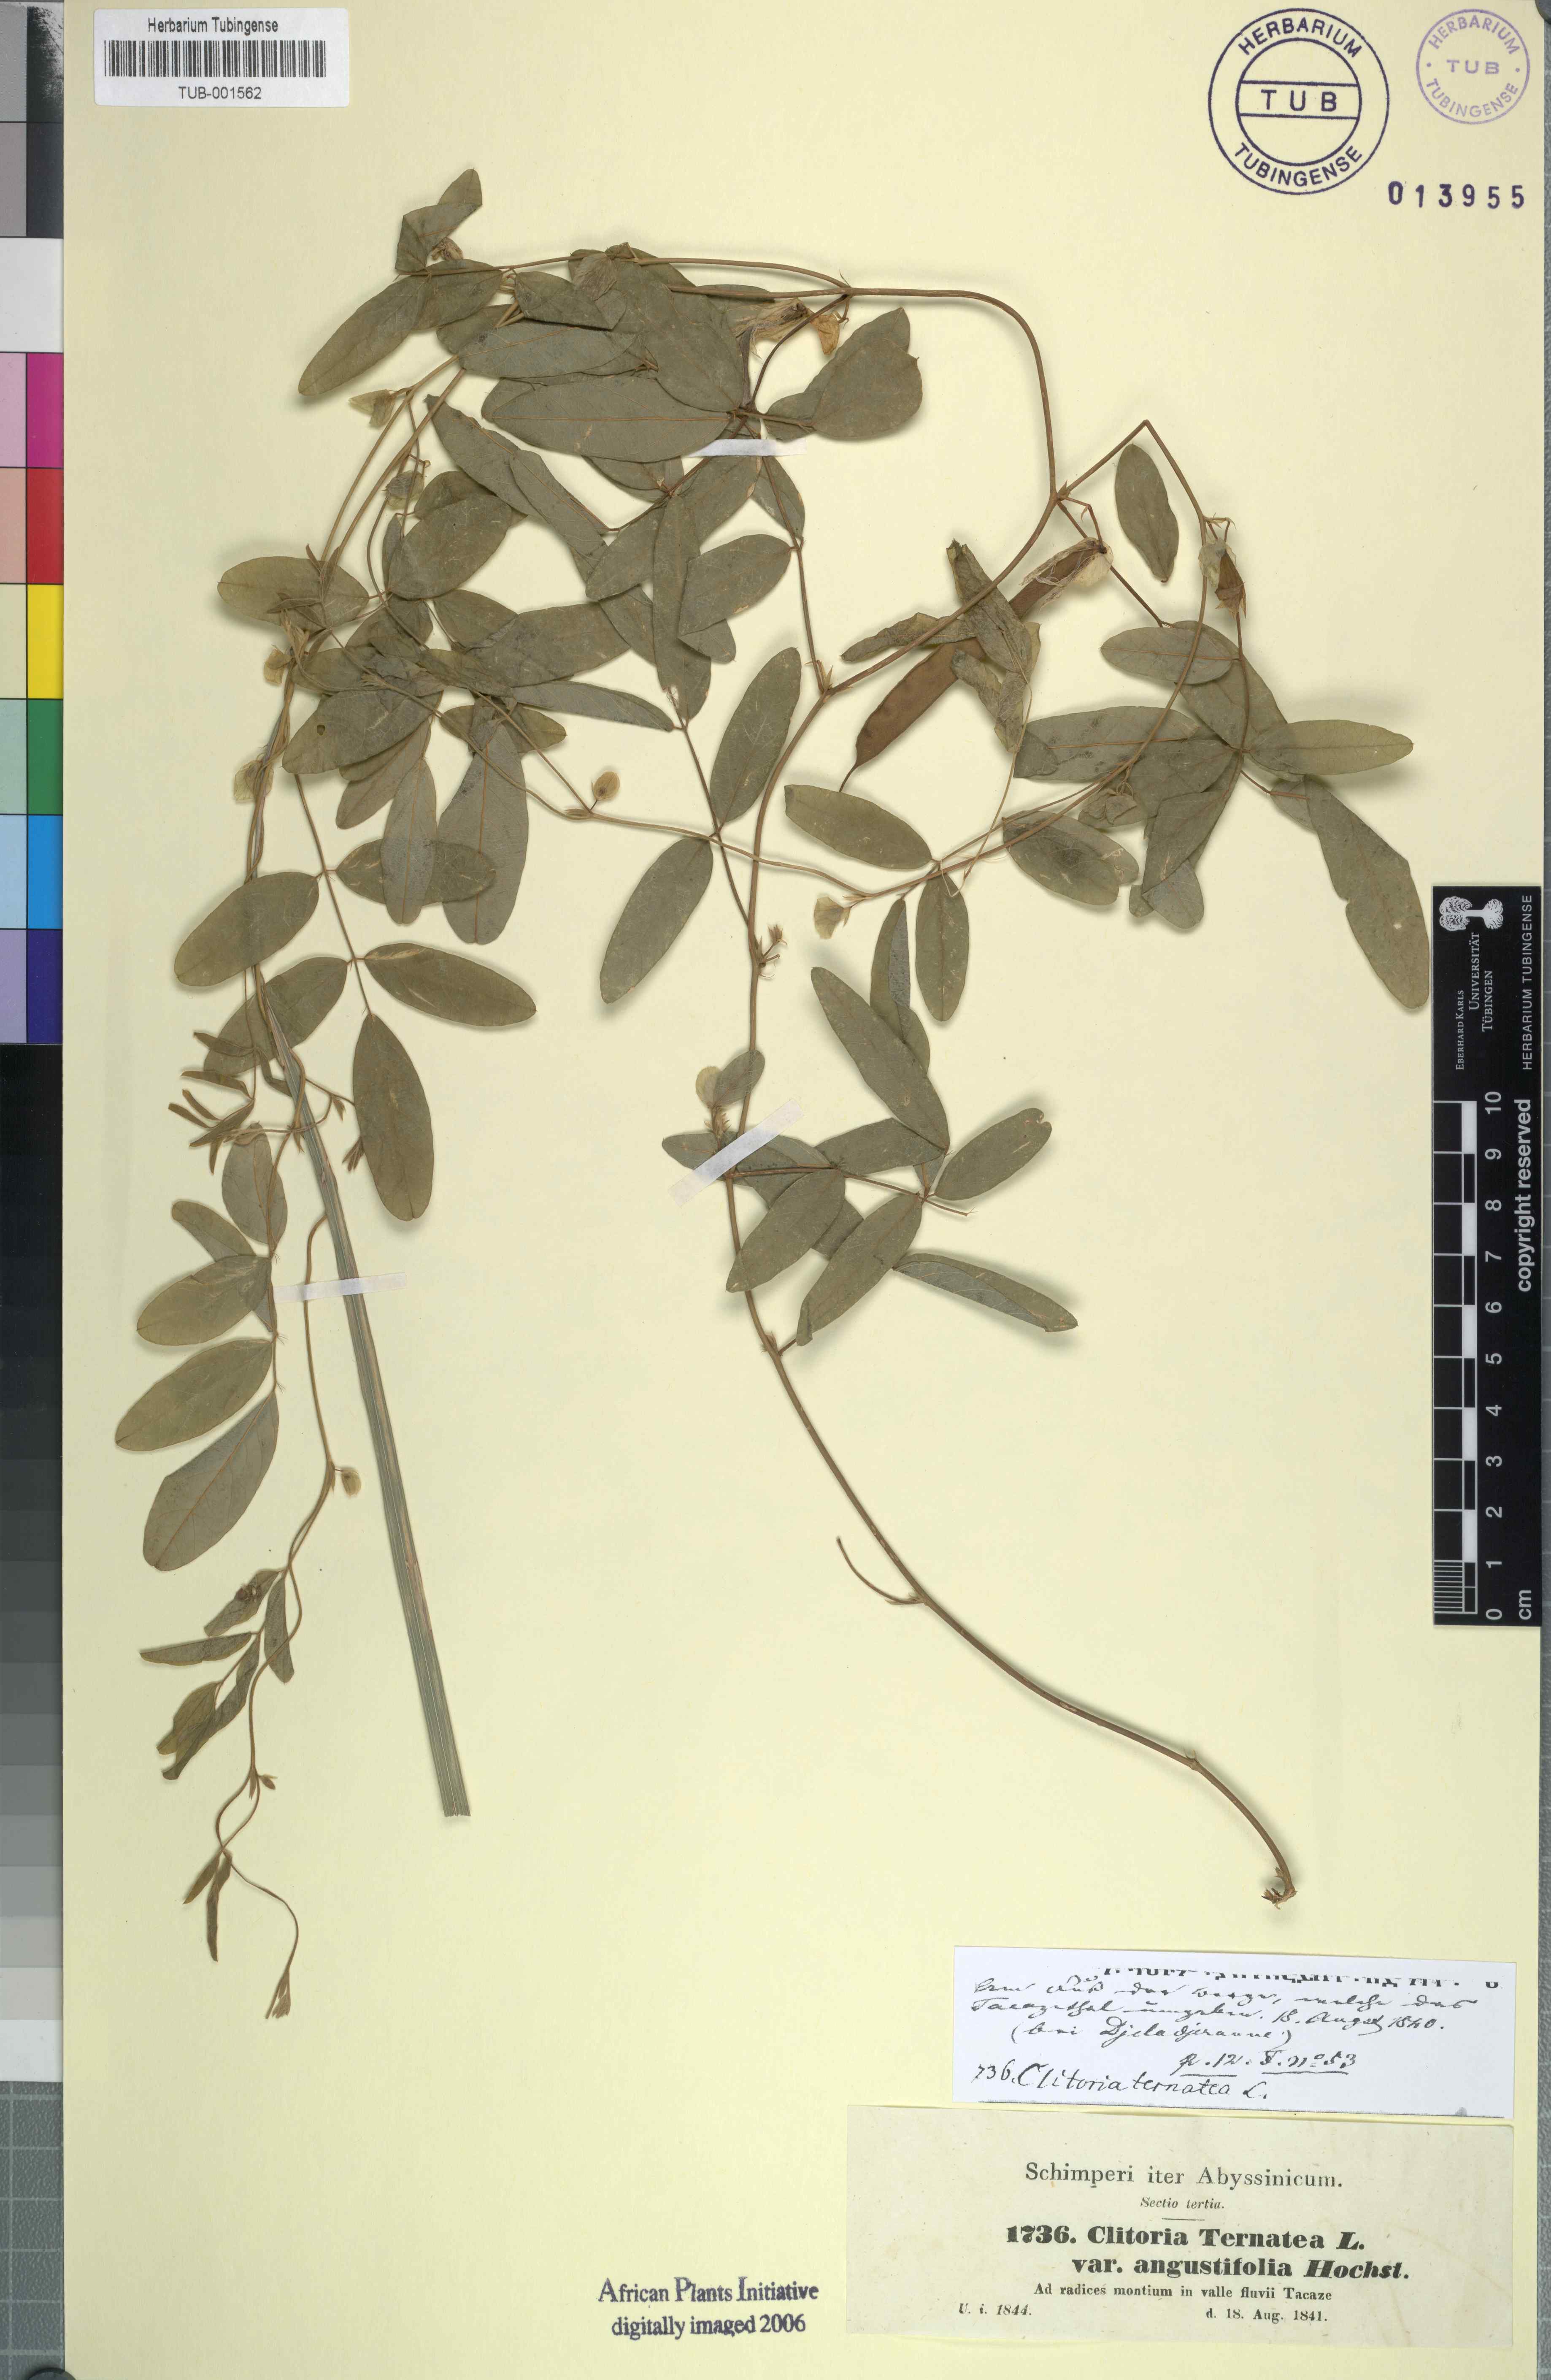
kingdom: Plantae
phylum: Tracheophyta
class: Magnoliopsida
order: Fabales
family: Fabaceae
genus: Clitoria
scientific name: Clitoria ternatea
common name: Asian pigeonwings
